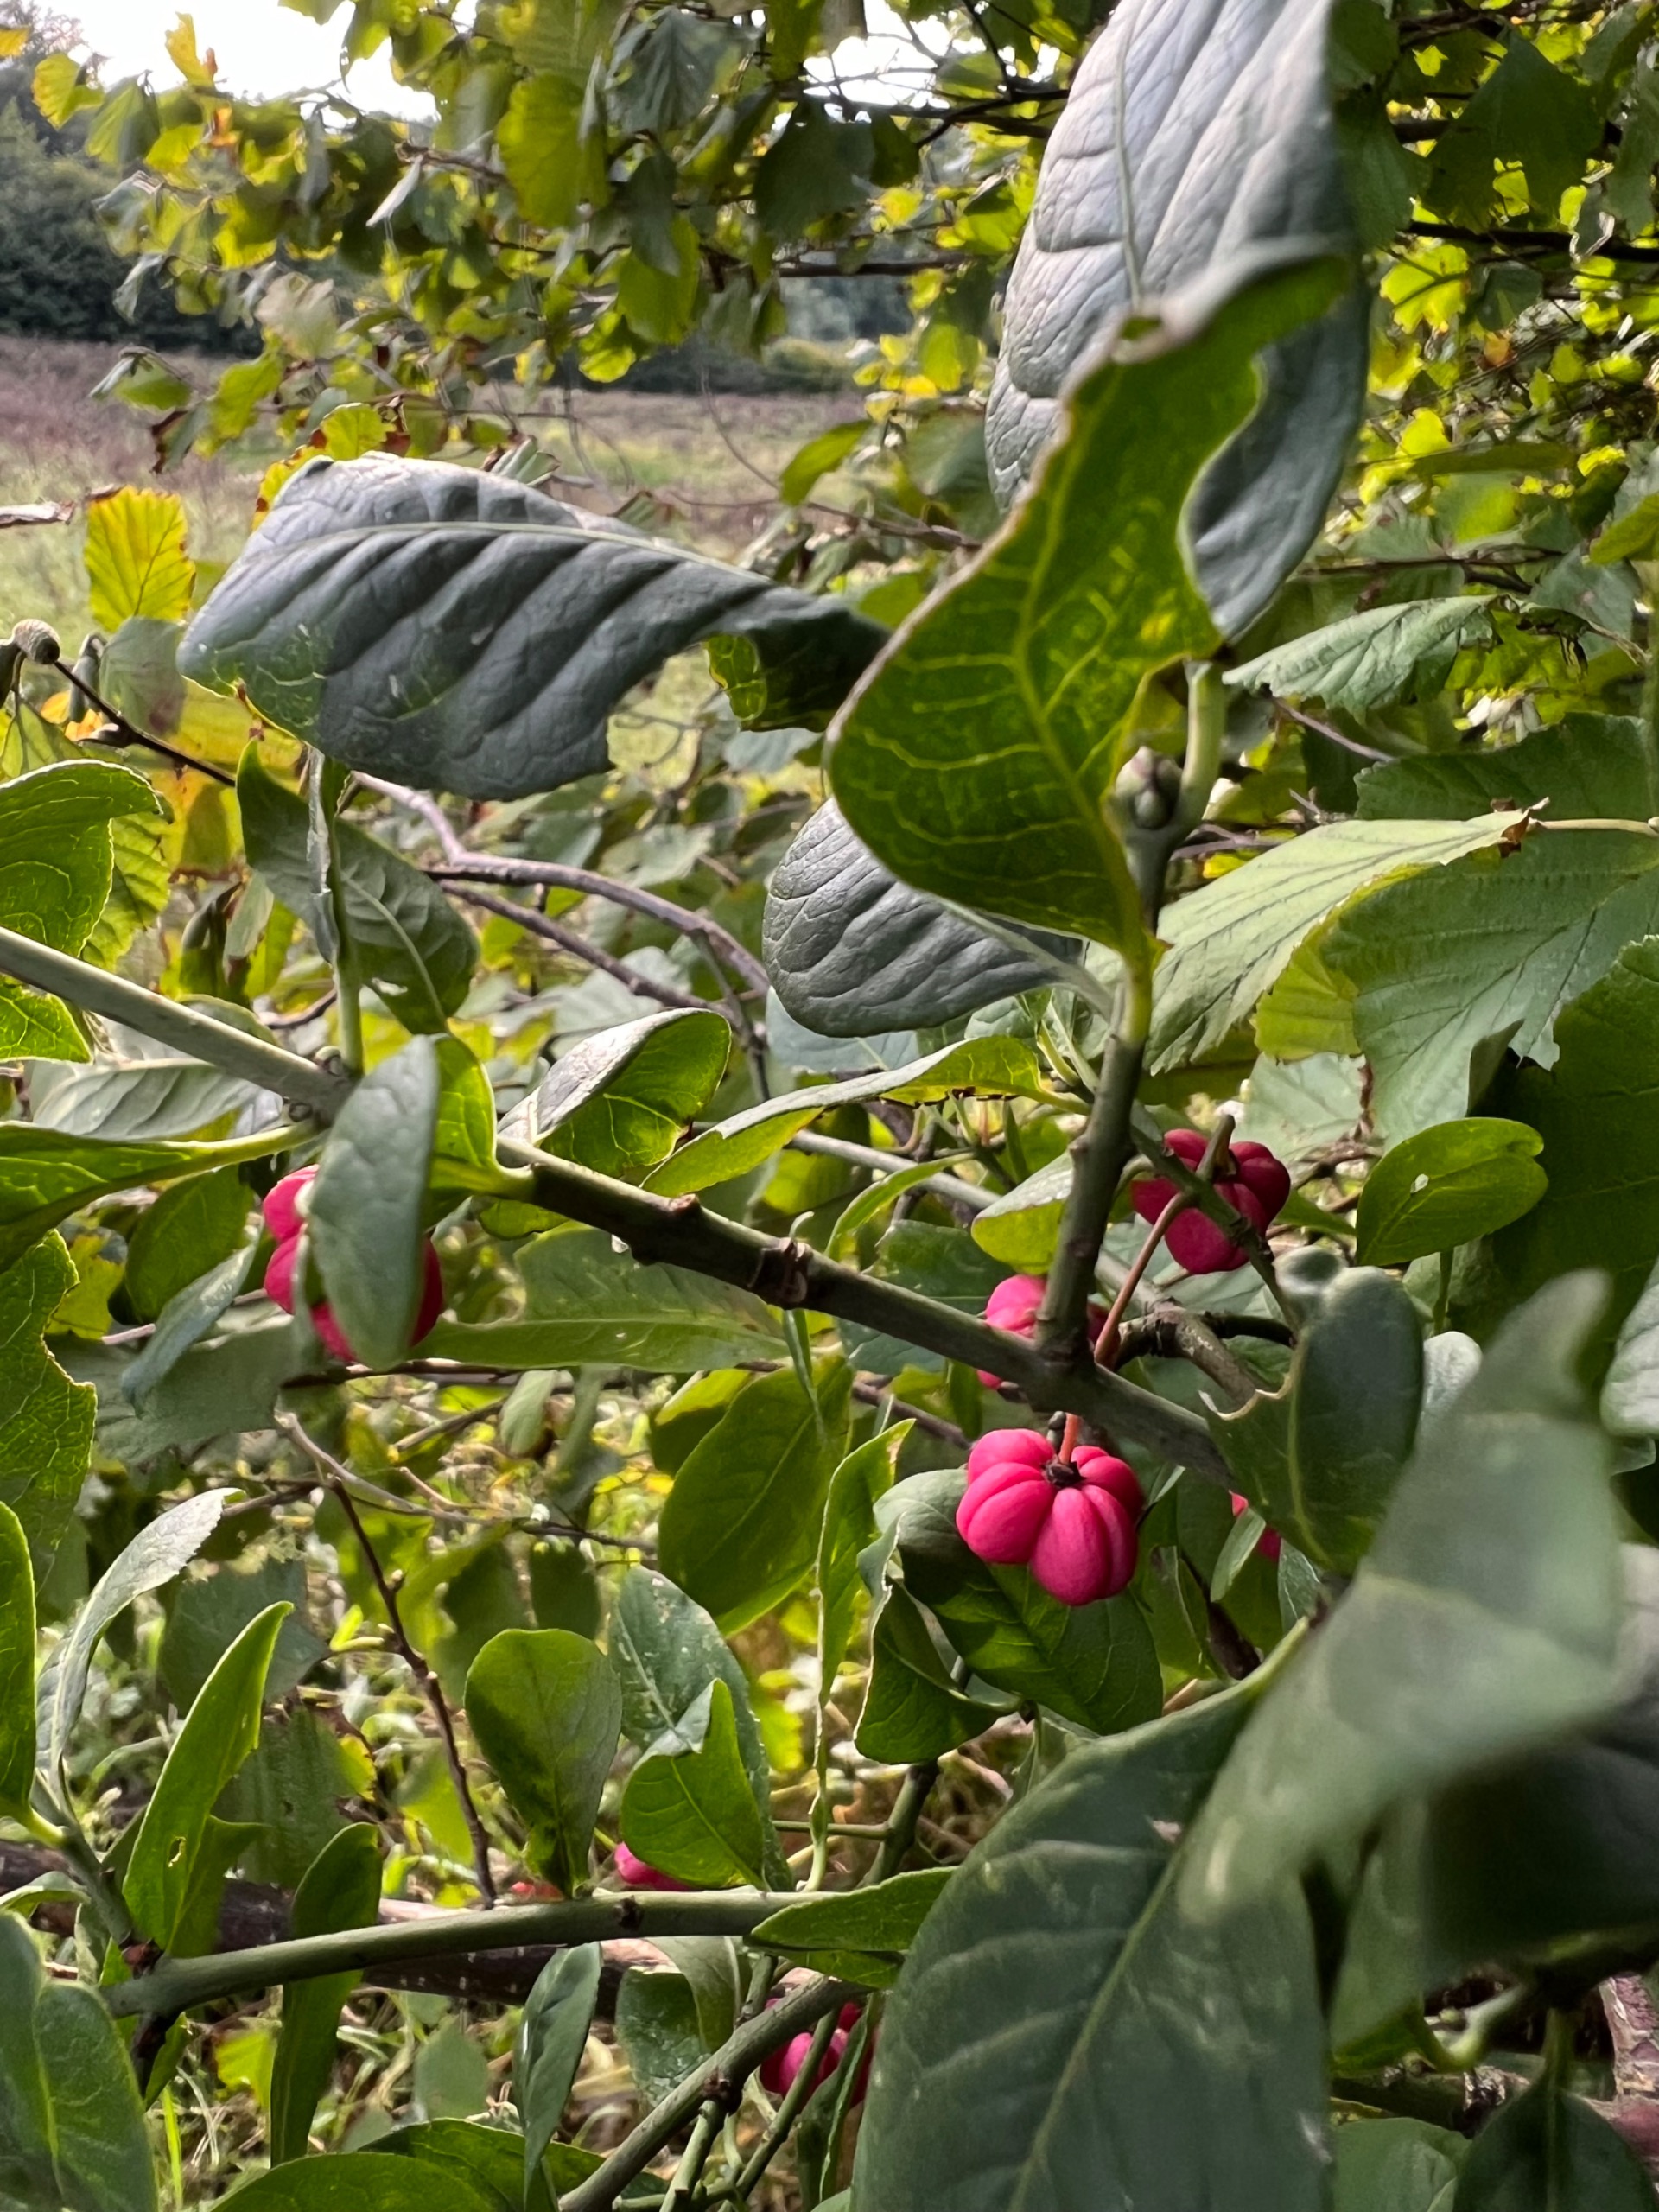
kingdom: Plantae
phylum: Tracheophyta
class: Magnoliopsida
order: Celastrales
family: Celastraceae
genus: Euonymus
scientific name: Euonymus europaeus
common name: Benved
